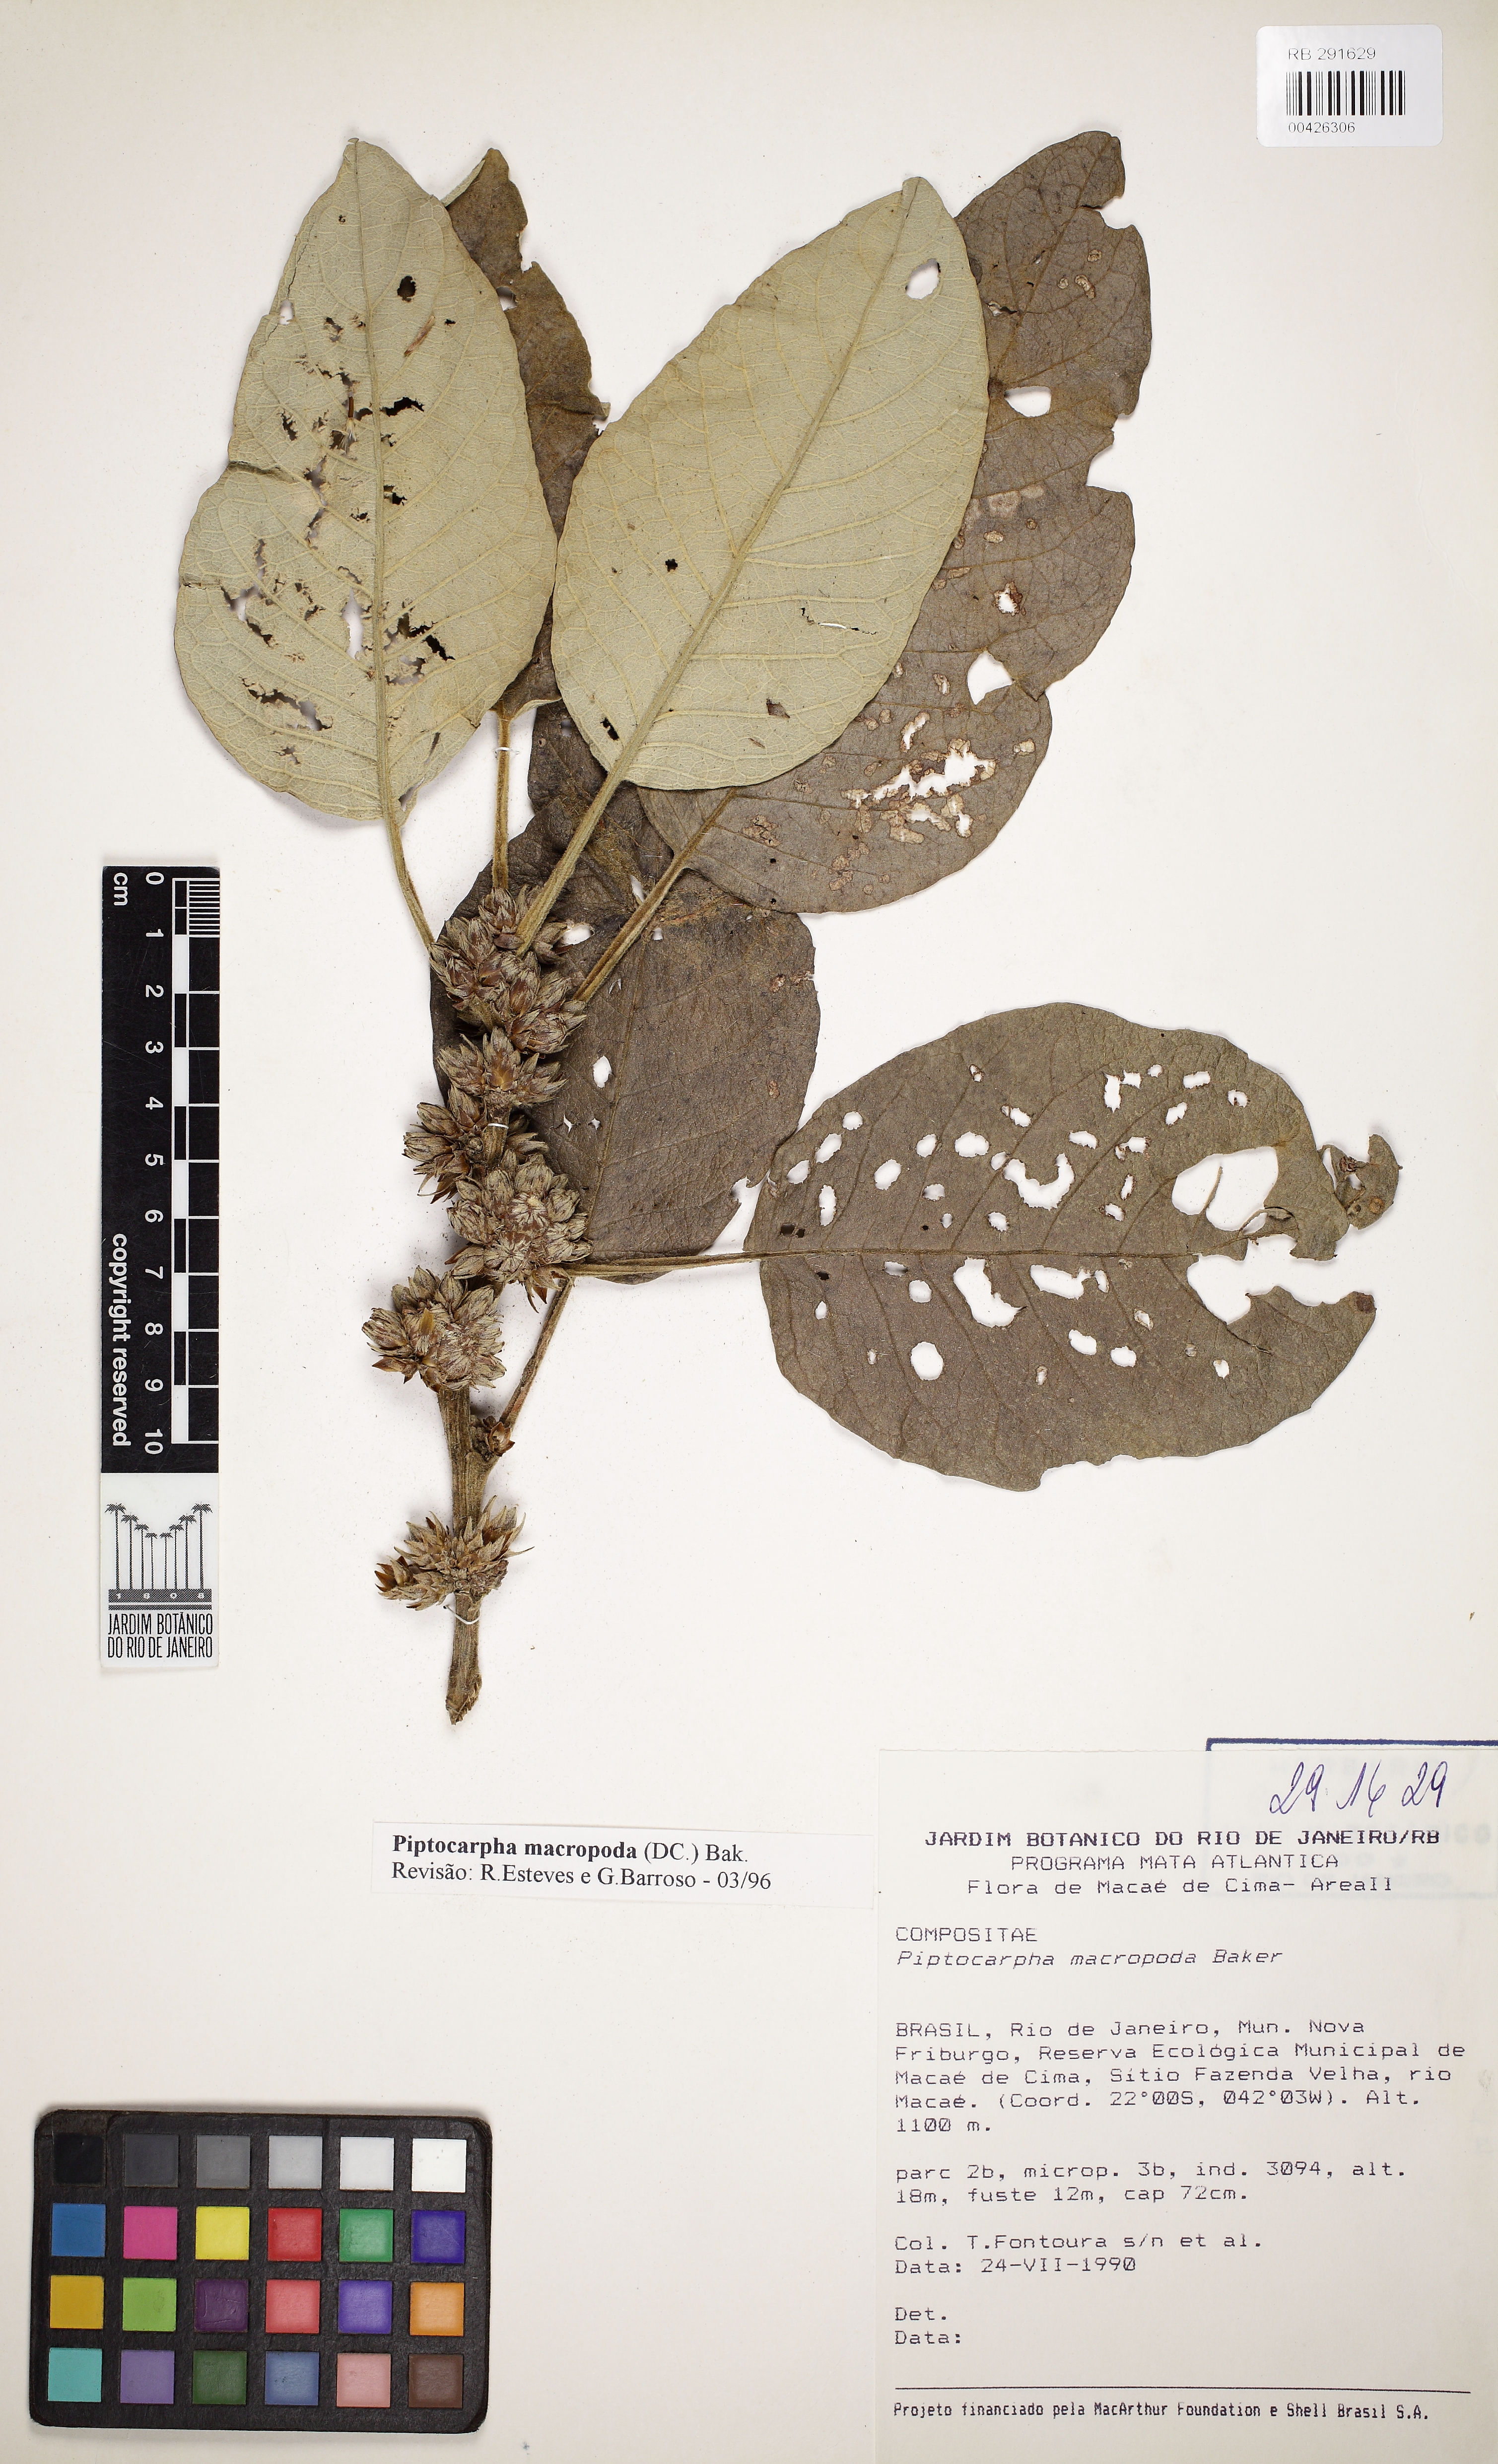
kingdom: Plantae
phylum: Tracheophyta
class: Magnoliopsida
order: Asterales
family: Asteraceae
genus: Piptocarpha
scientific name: Piptocarpha macropoda
